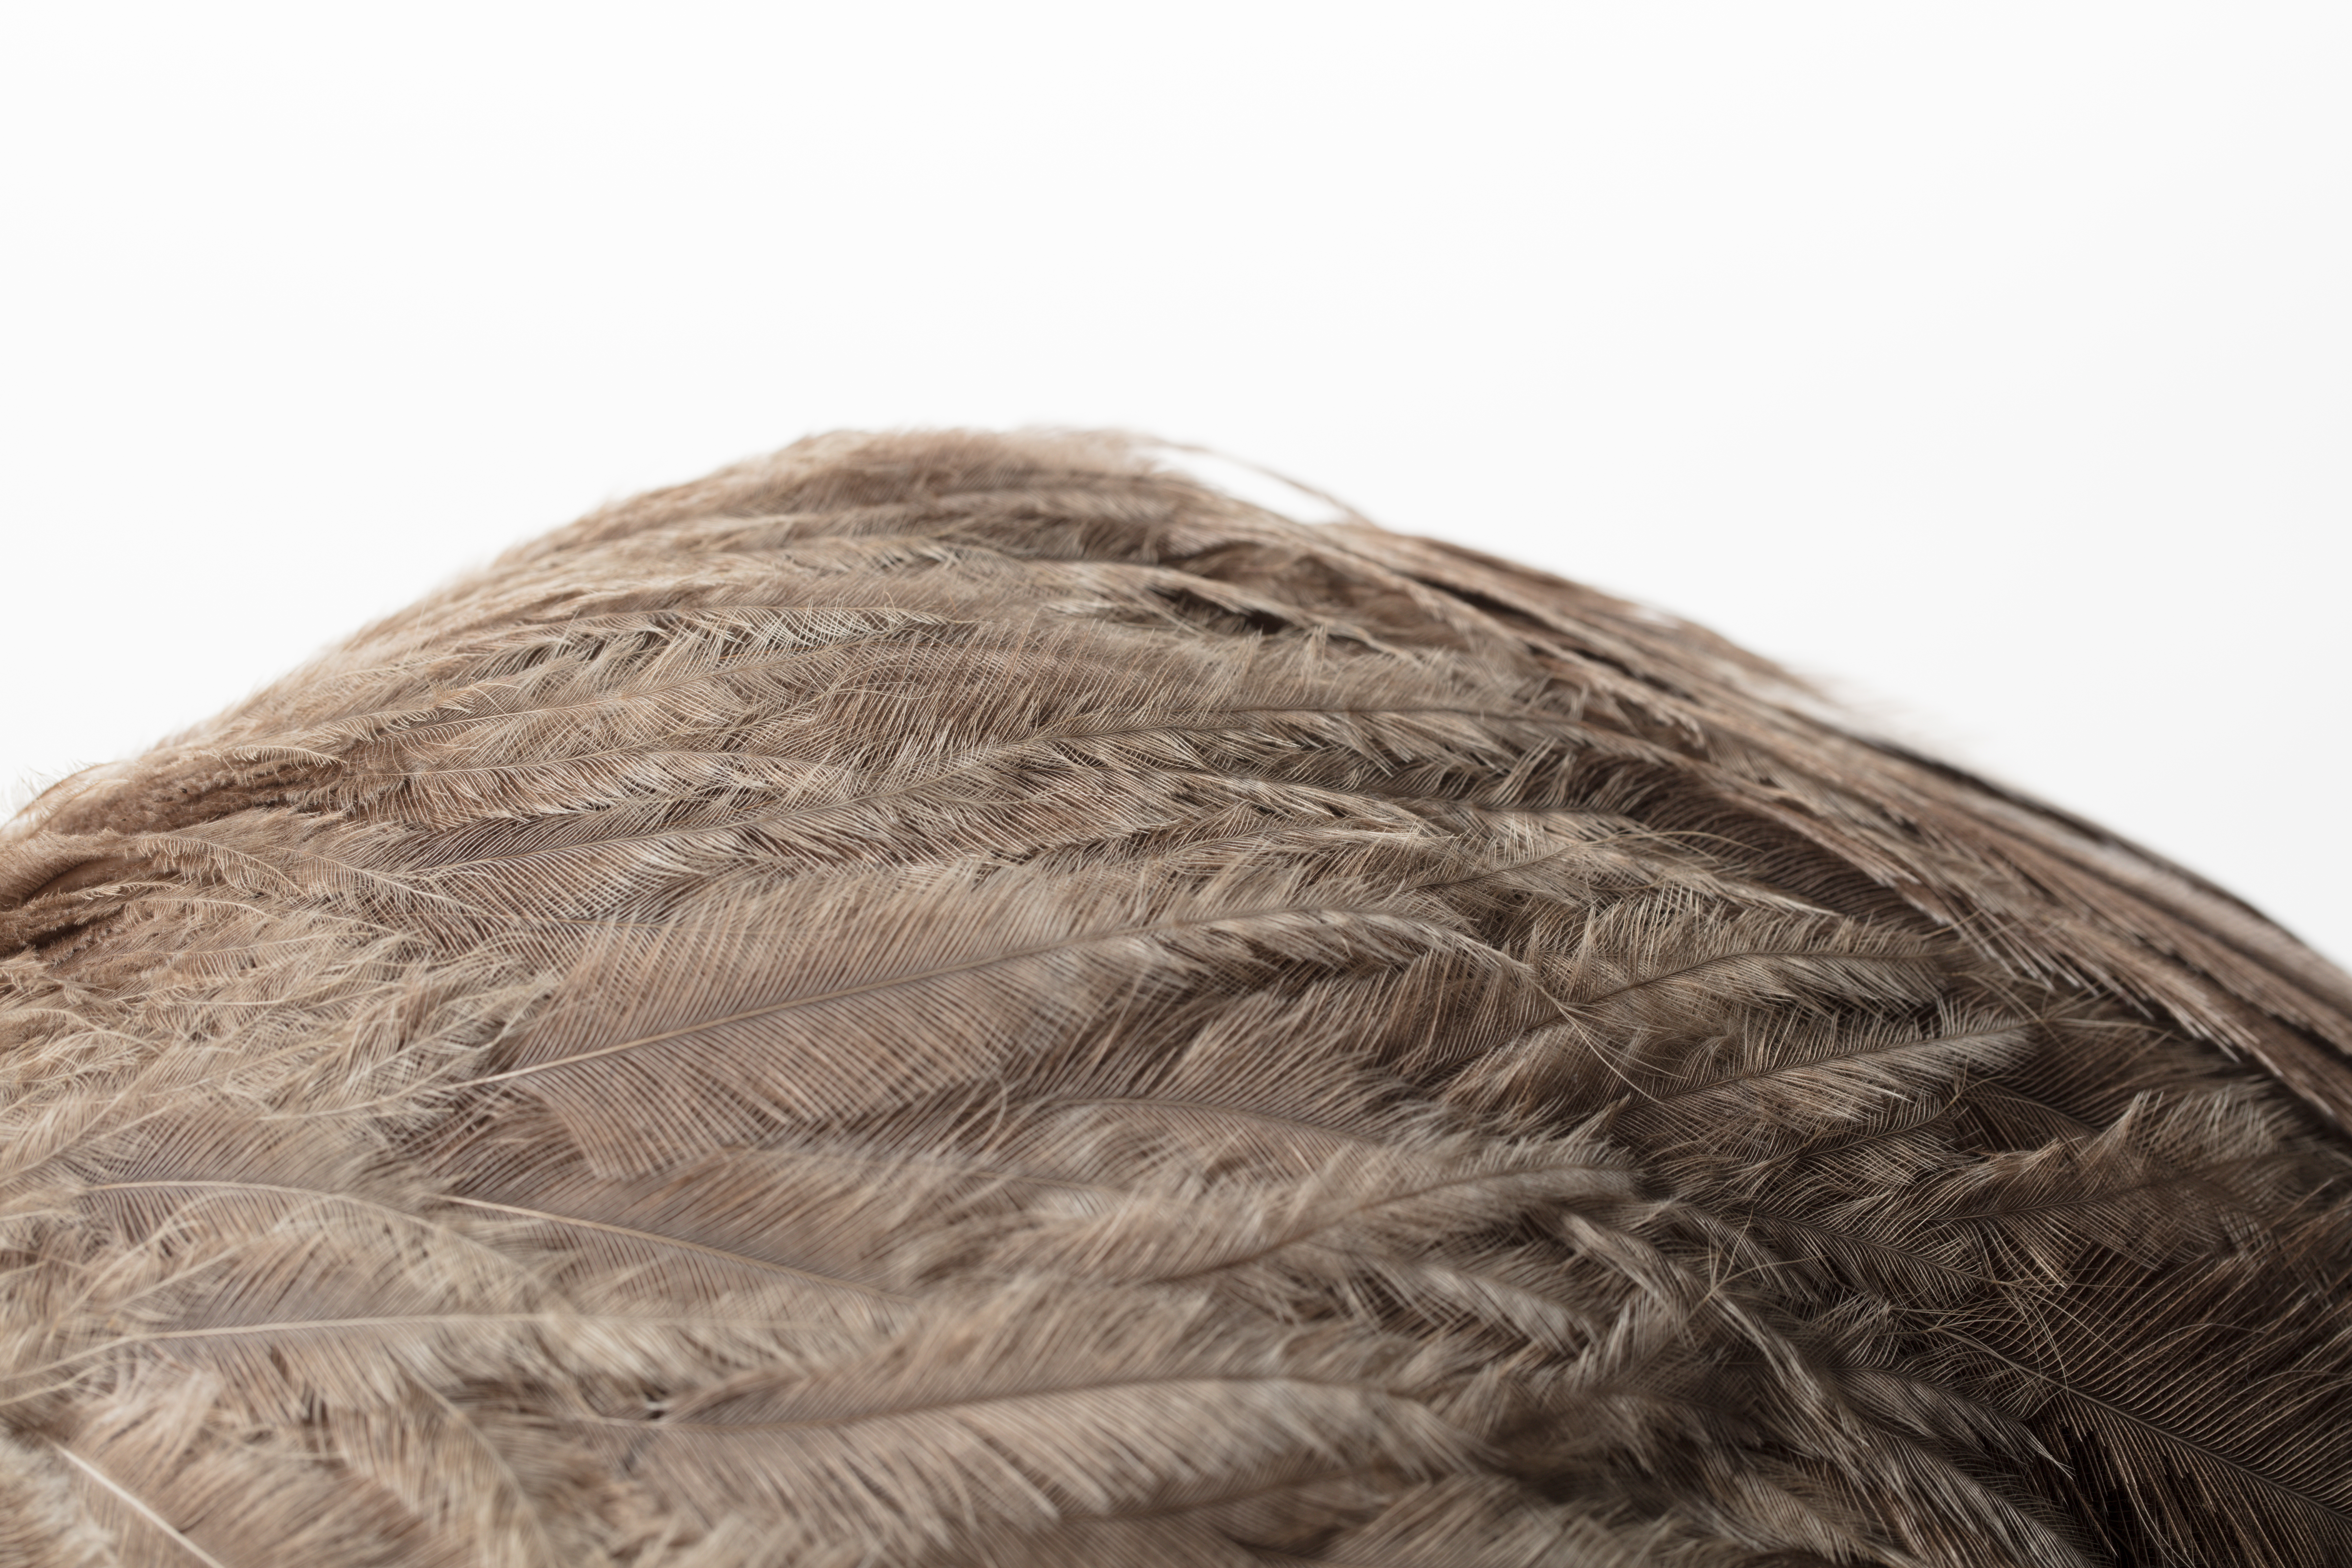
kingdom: Animalia
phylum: Chordata
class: Aves
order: Rheiformes
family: Rheidae
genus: Rhea
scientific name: Rhea americana
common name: Greater rhea
